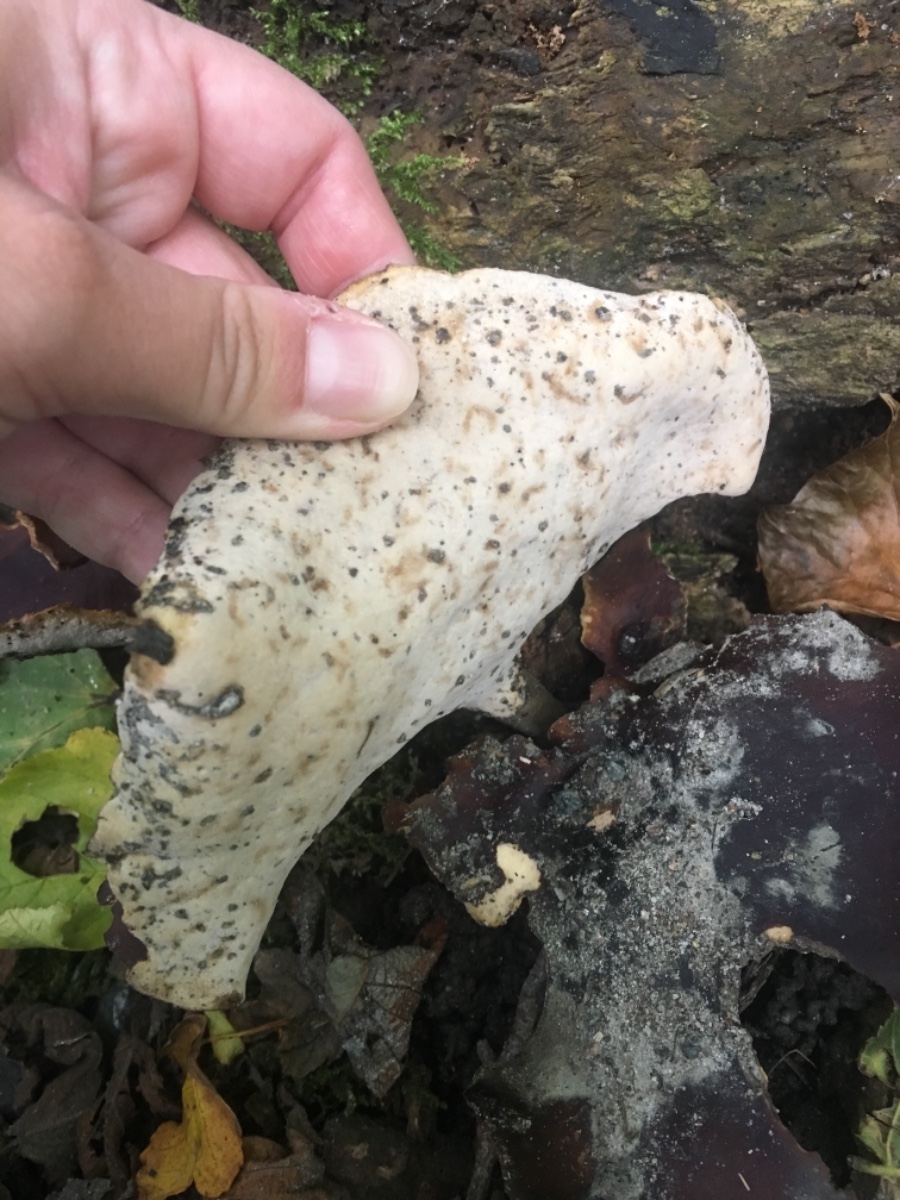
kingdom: Fungi
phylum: Basidiomycota
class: Agaricomycetes
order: Polyporales
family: Polyporaceae
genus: Picipes
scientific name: Picipes badius
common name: kastaniebrun stilkporesvamp
